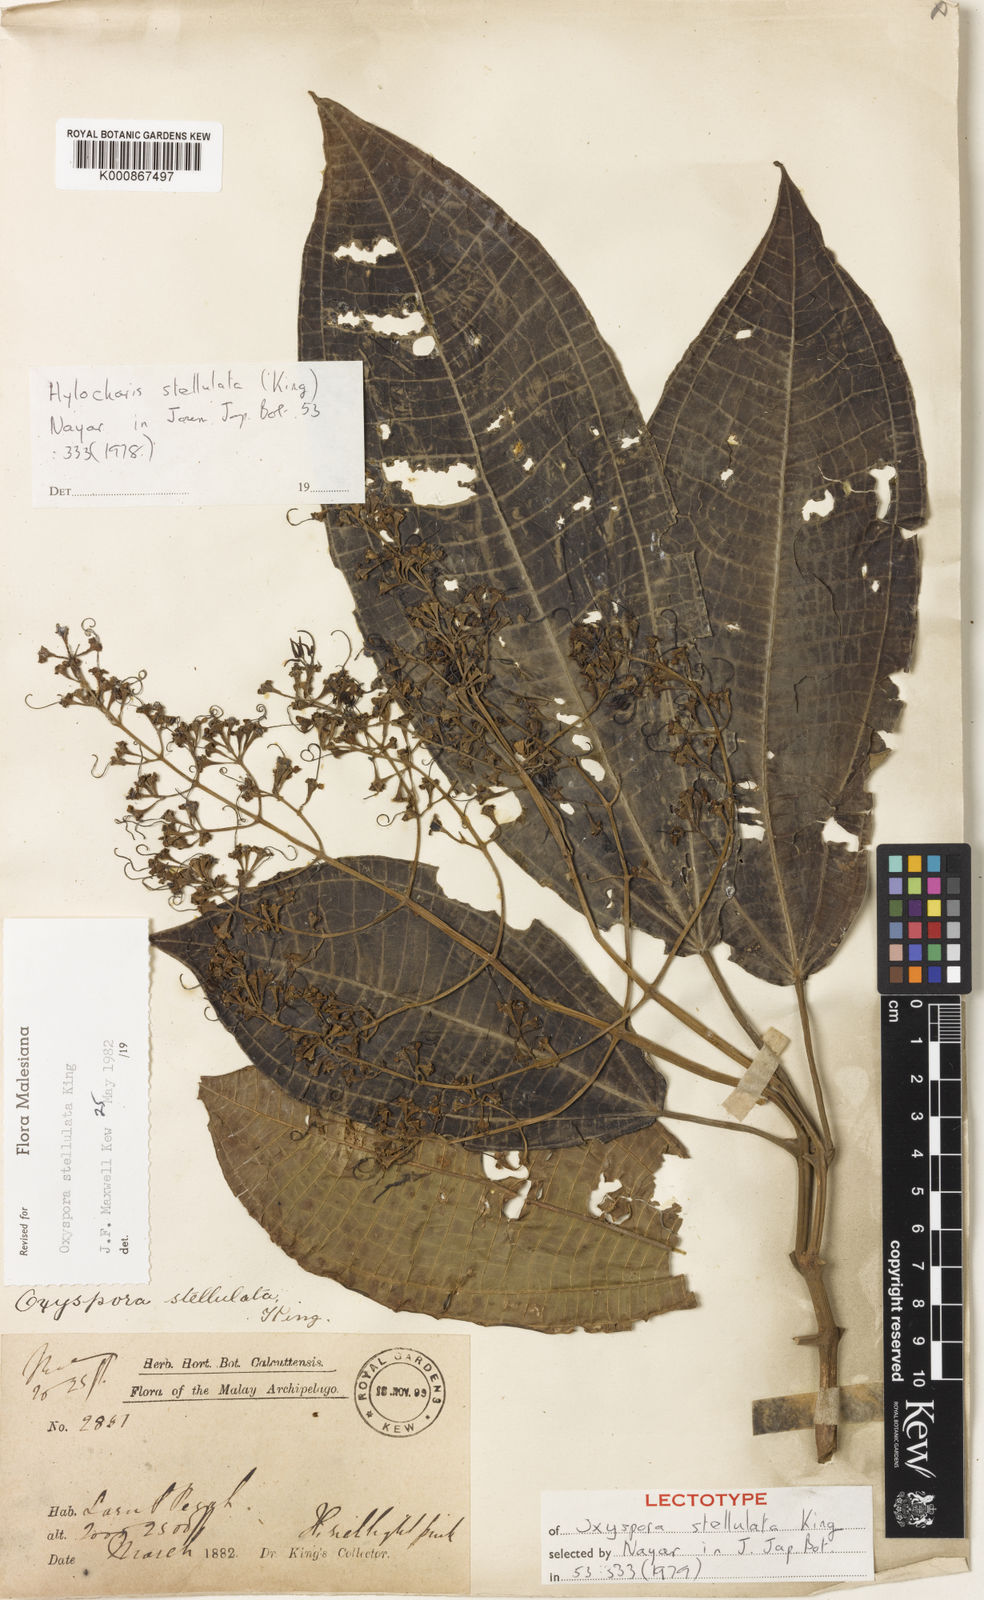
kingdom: Plantae
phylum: Tracheophyta
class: Magnoliopsida
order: Myrtales
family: Melastomataceae
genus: Hylocharis
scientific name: Hylocharis stellulata
